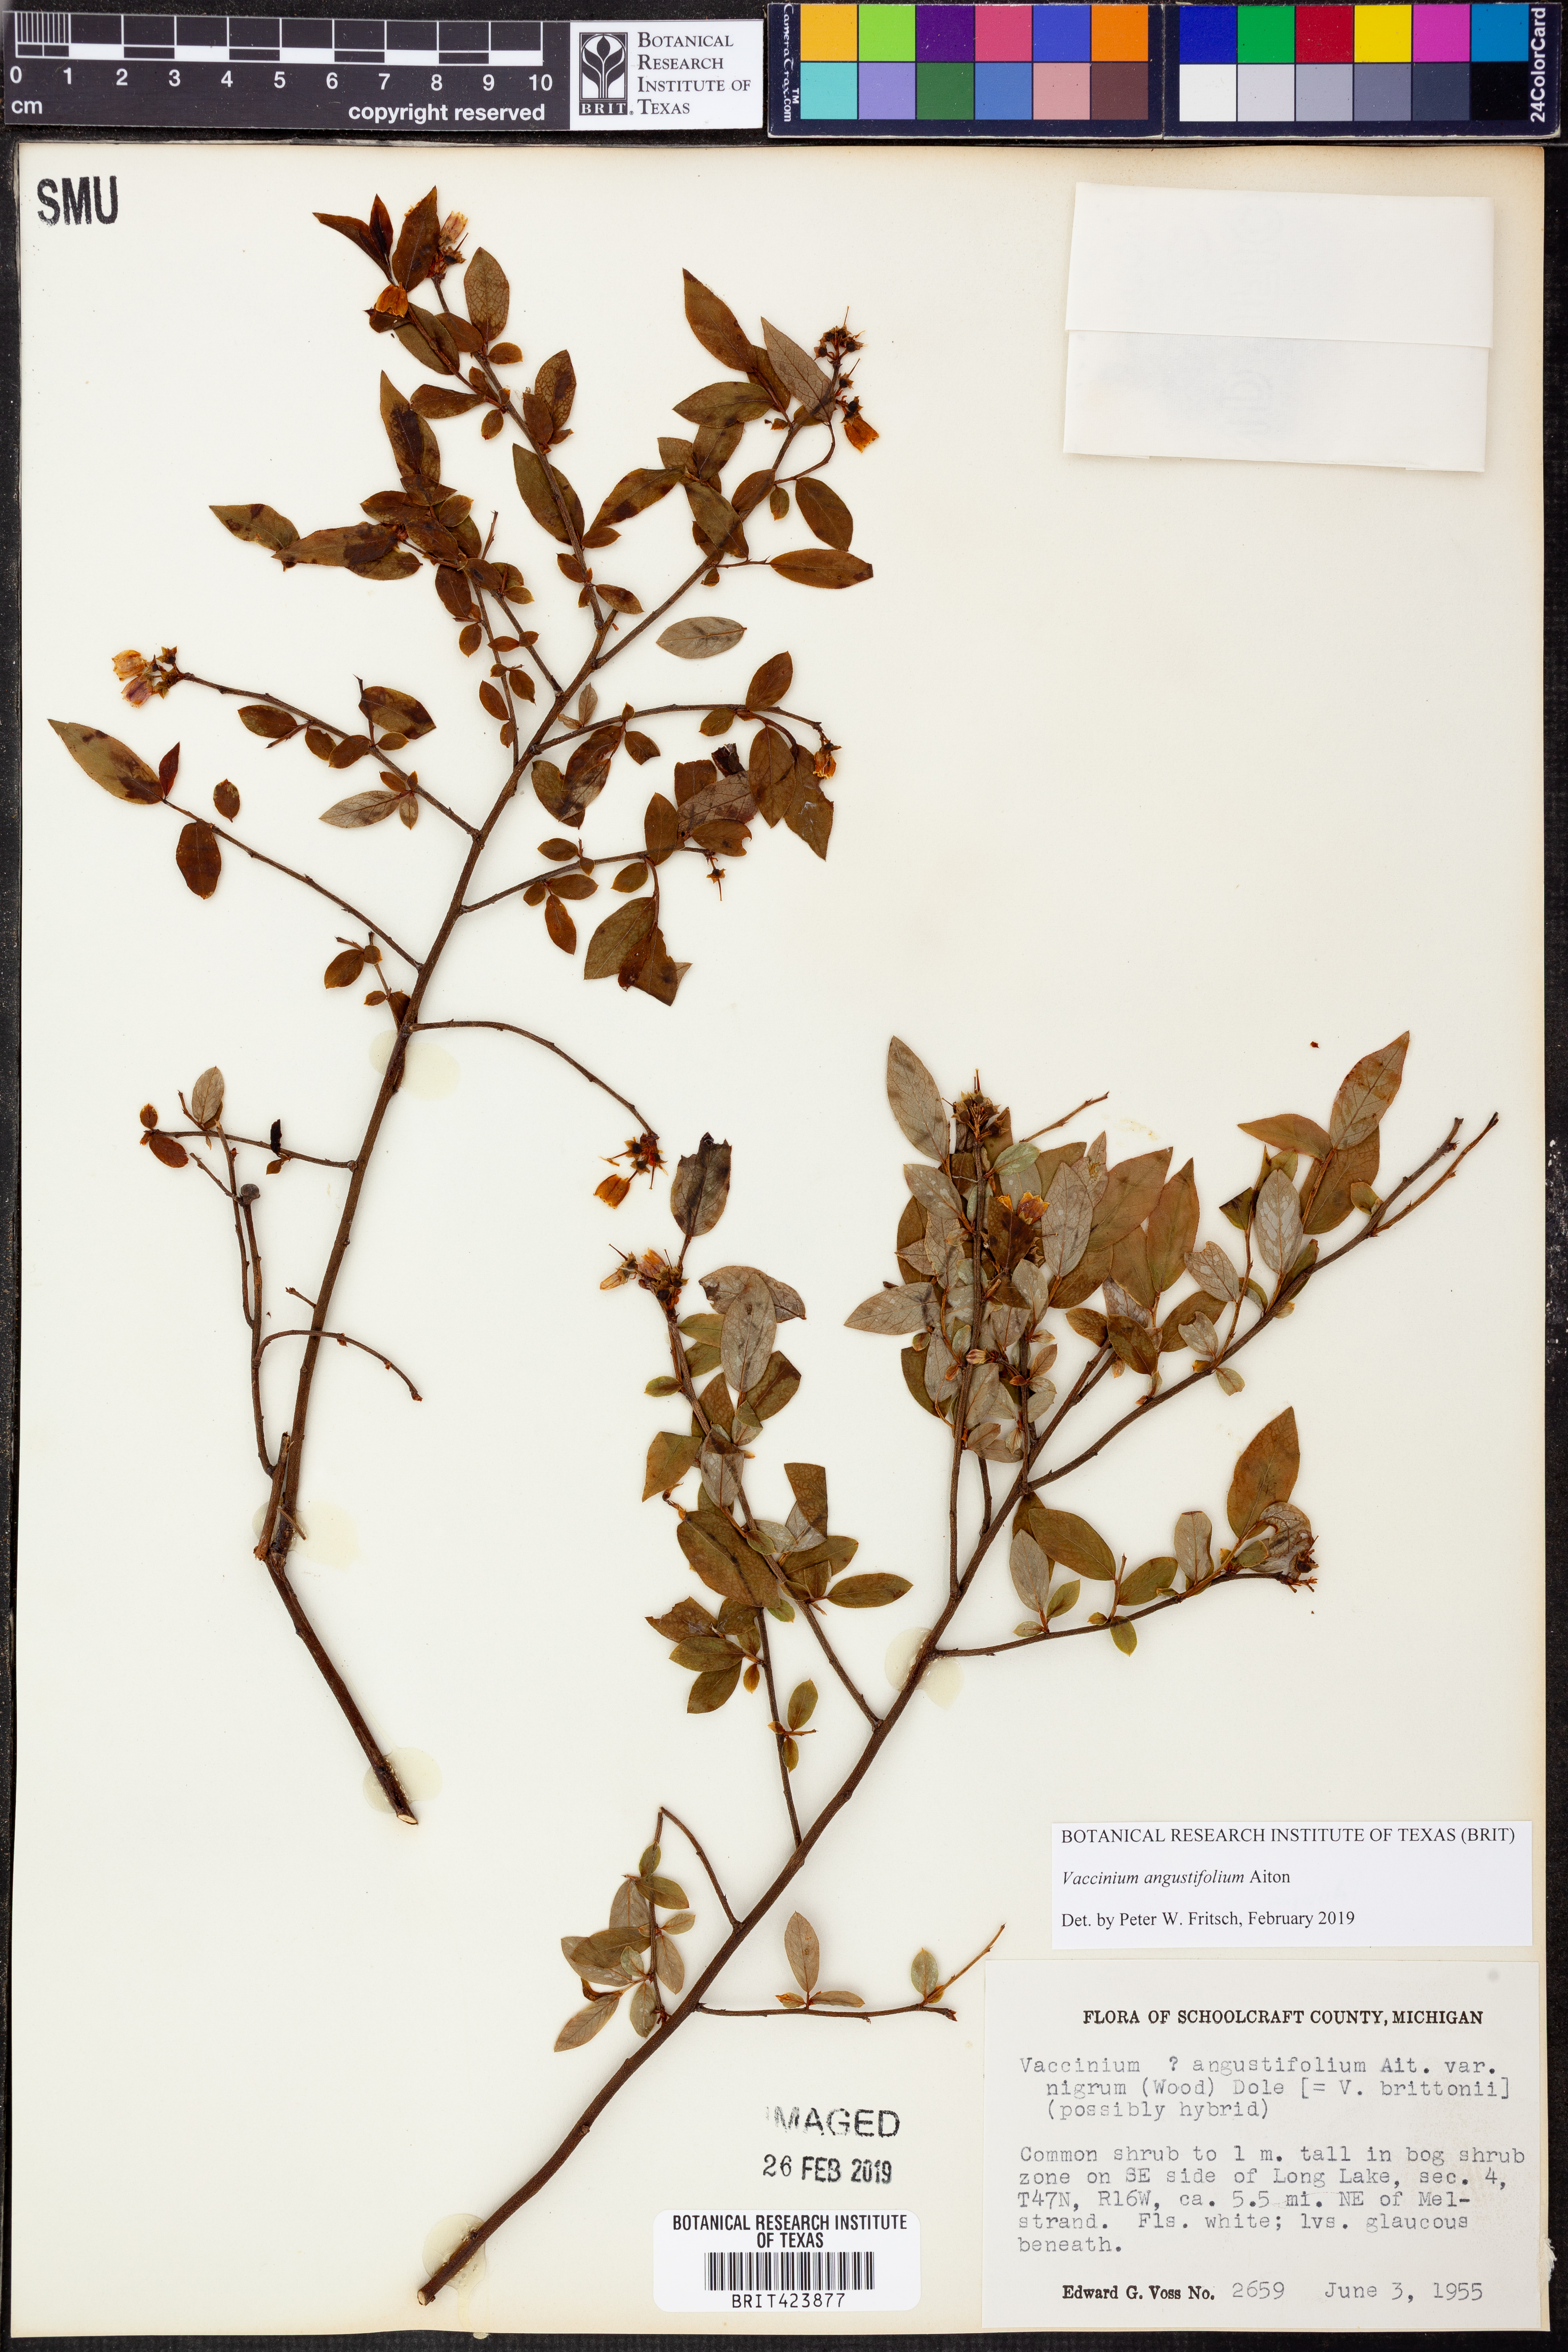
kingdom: Plantae
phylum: Tracheophyta
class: Magnoliopsida
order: Ericales
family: Ericaceae
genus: Vaccinium
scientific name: Vaccinium angustifolium
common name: Early lowbush blueberry
